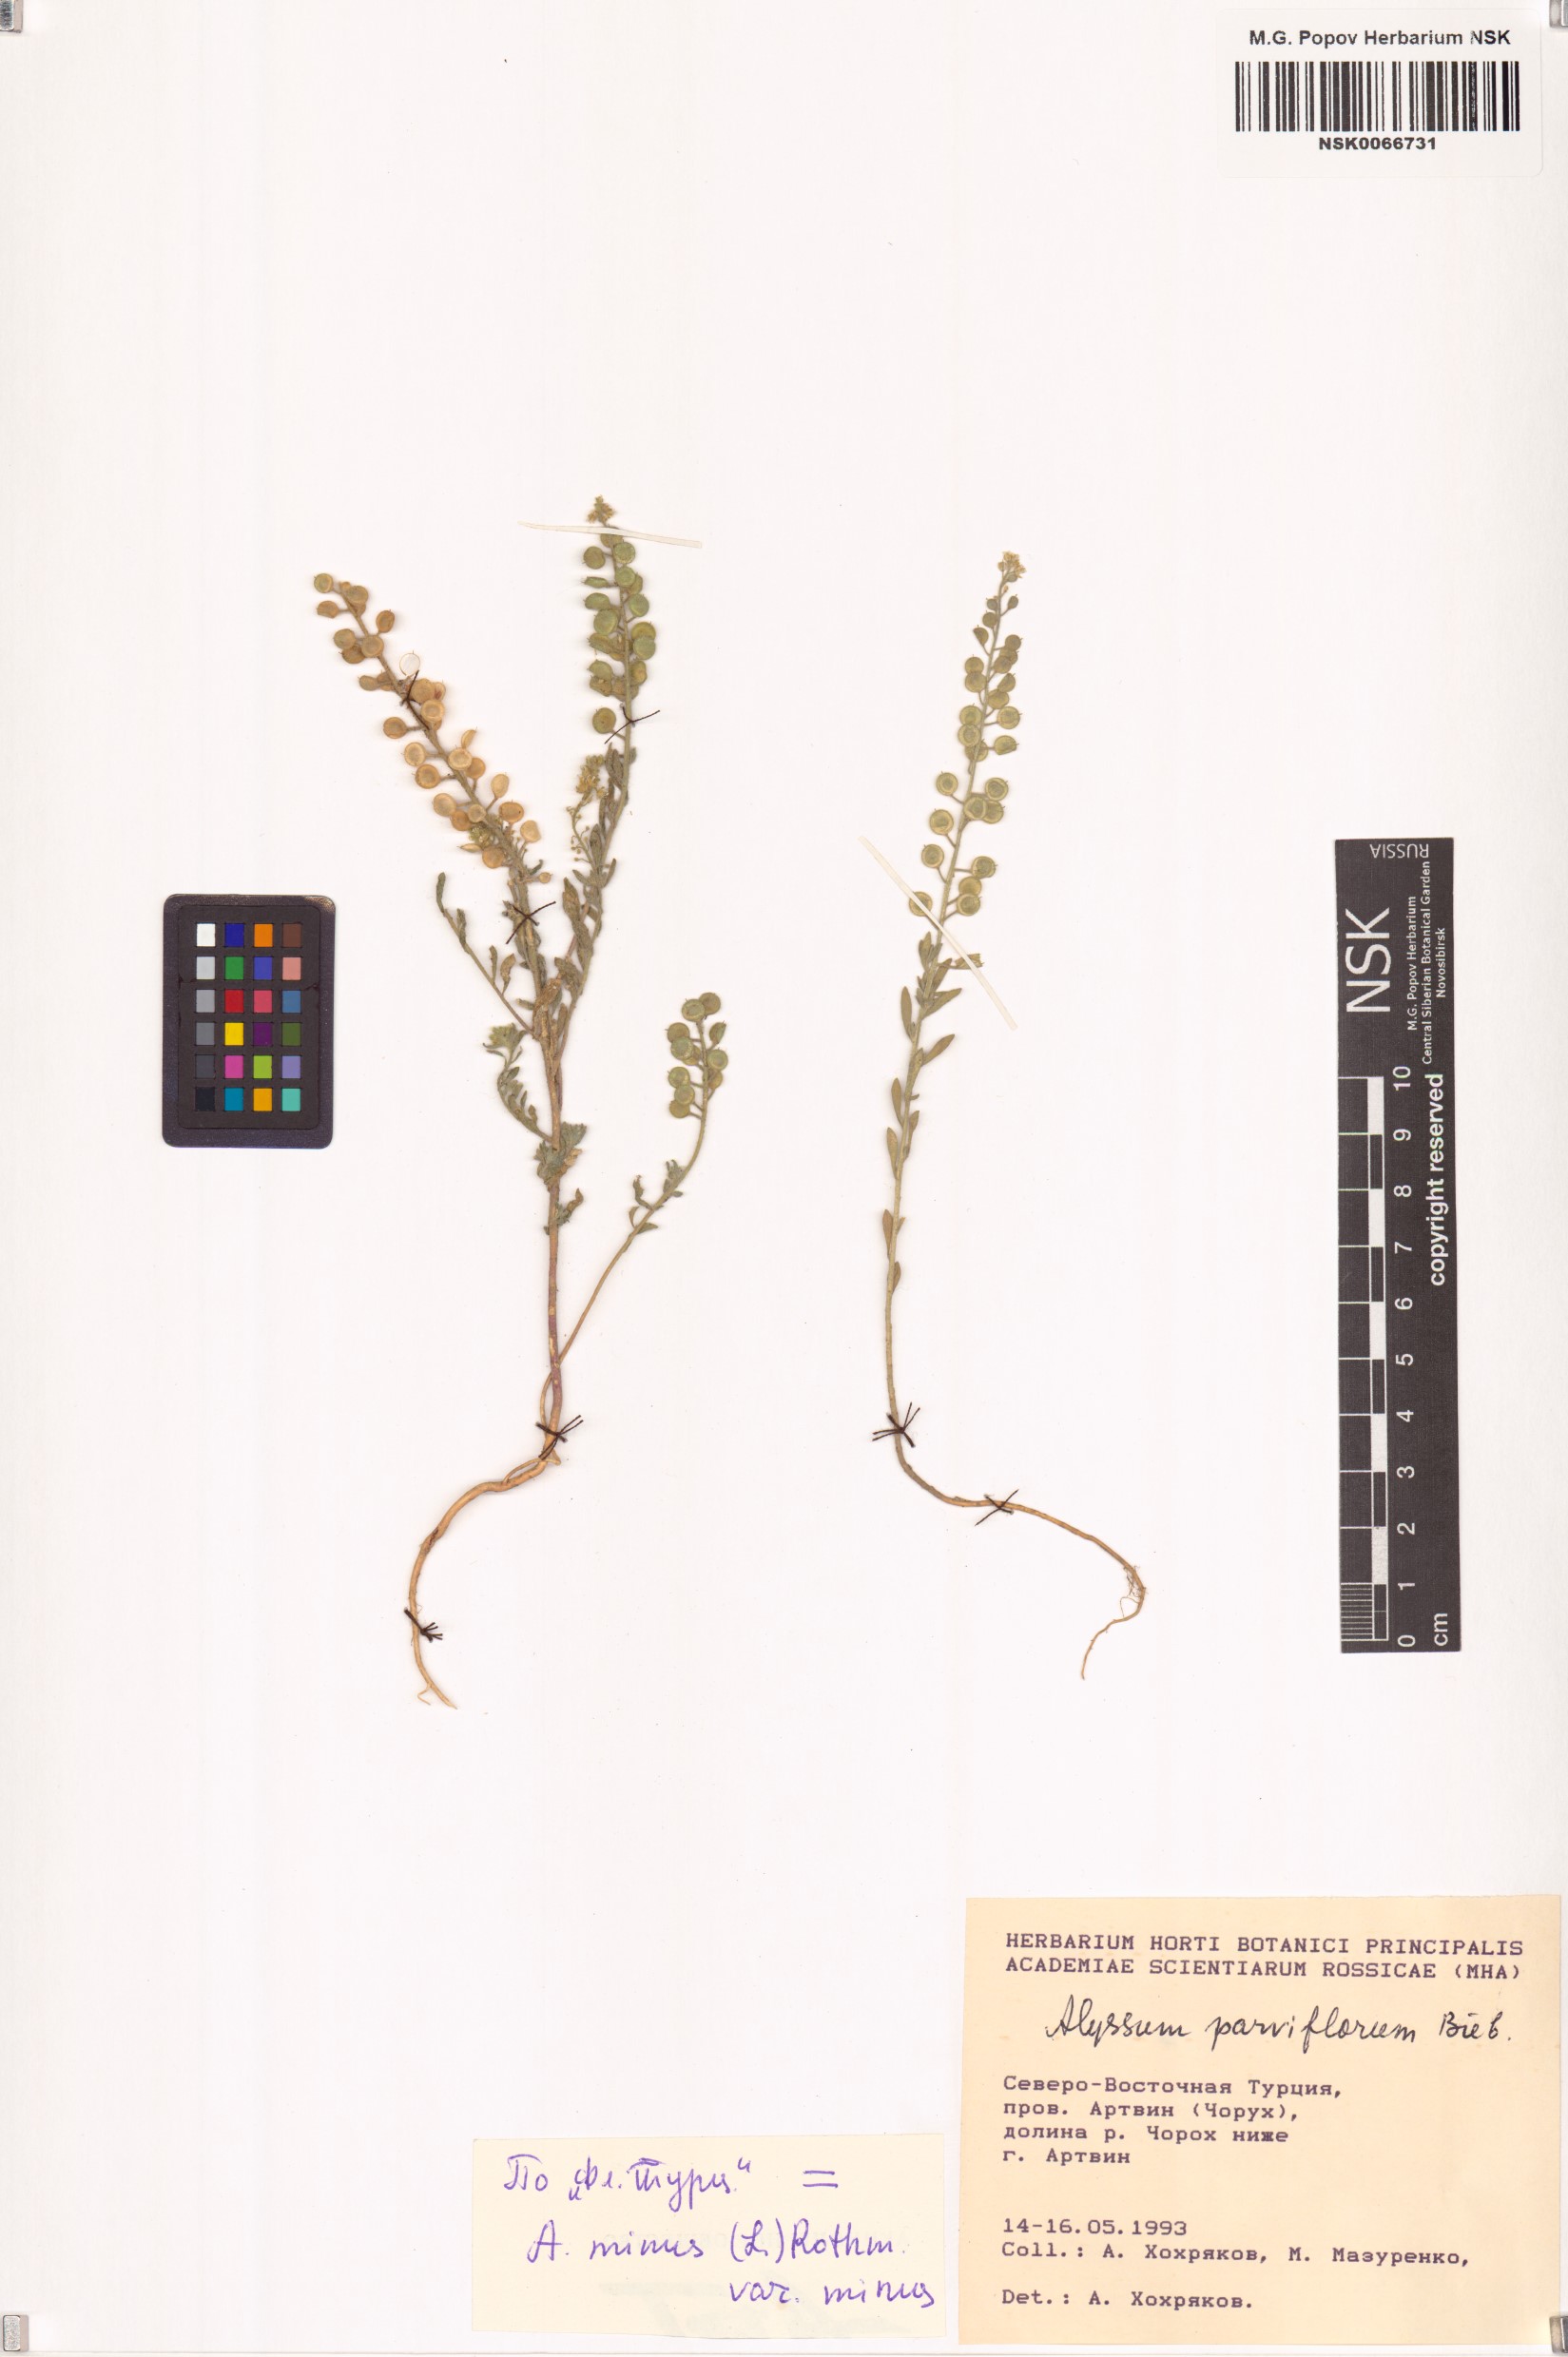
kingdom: Plantae
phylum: Tracheophyta
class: Magnoliopsida
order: Brassicales
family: Brassicaceae
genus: Alyssum
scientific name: Alyssum simplex
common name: Alyssum
